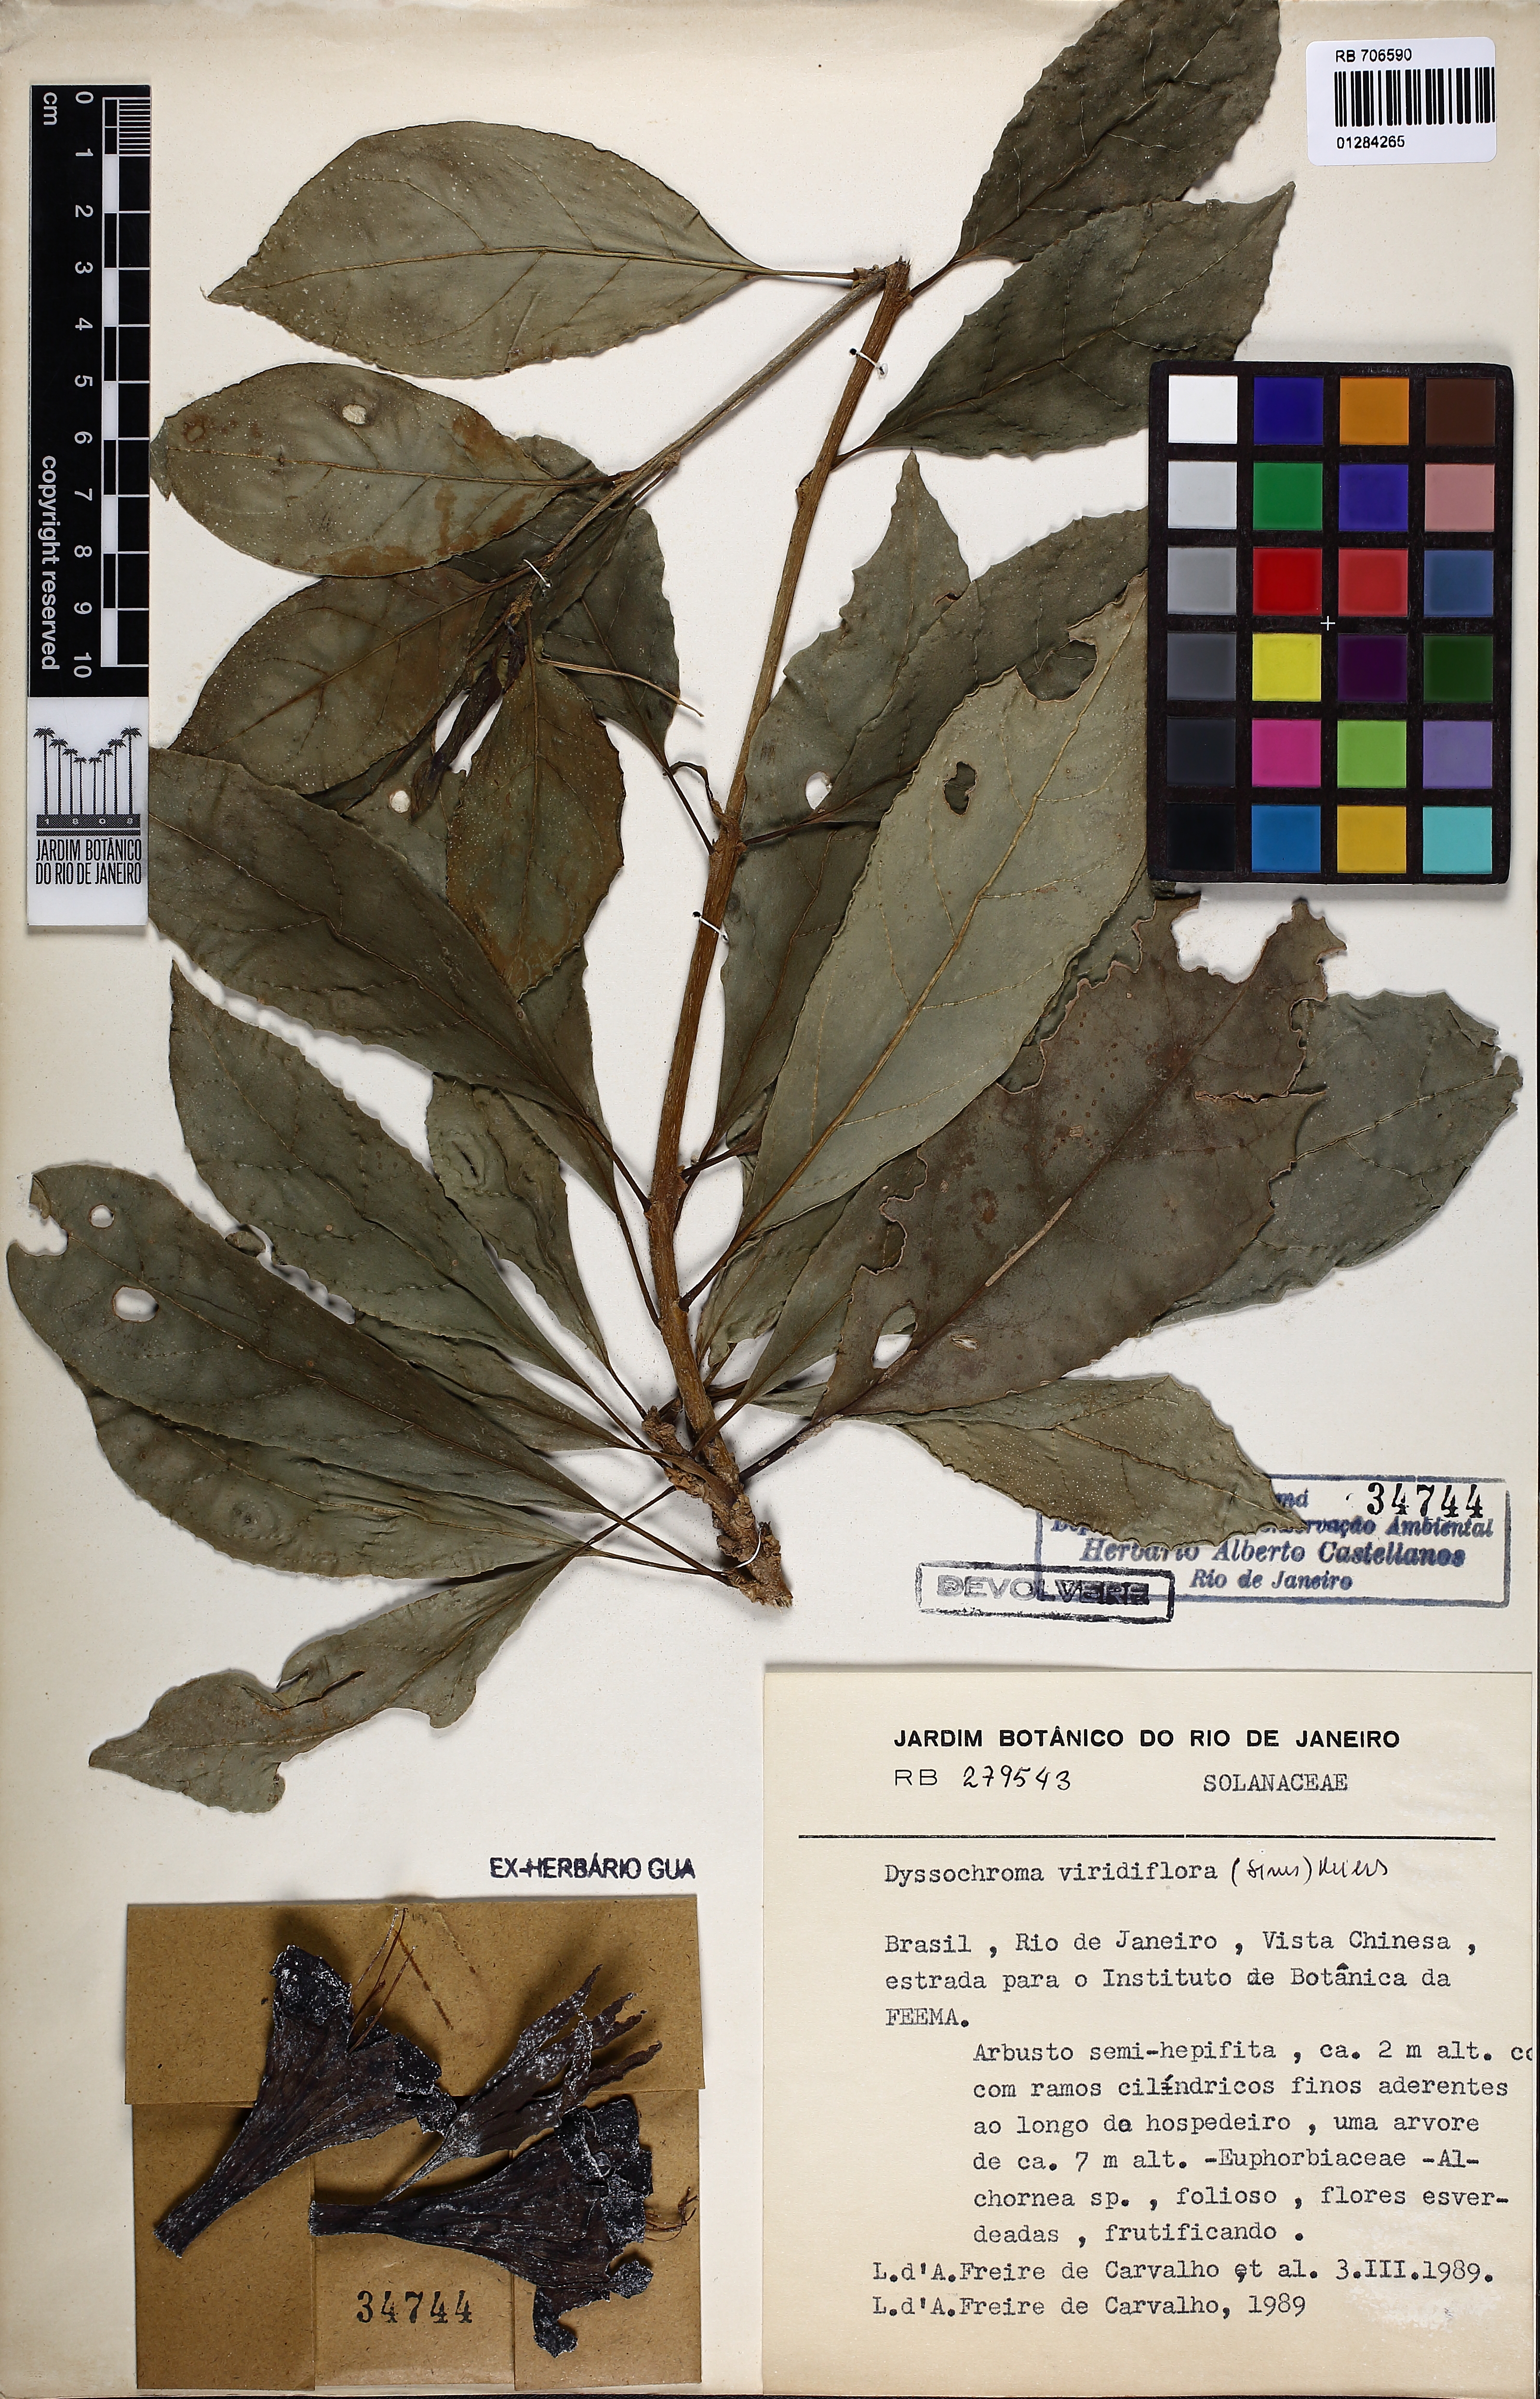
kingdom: Plantae
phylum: Tracheophyta
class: Magnoliopsida
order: Solanales
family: Solanaceae
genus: Dyssochroma
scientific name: Dyssochroma viridiflorum
